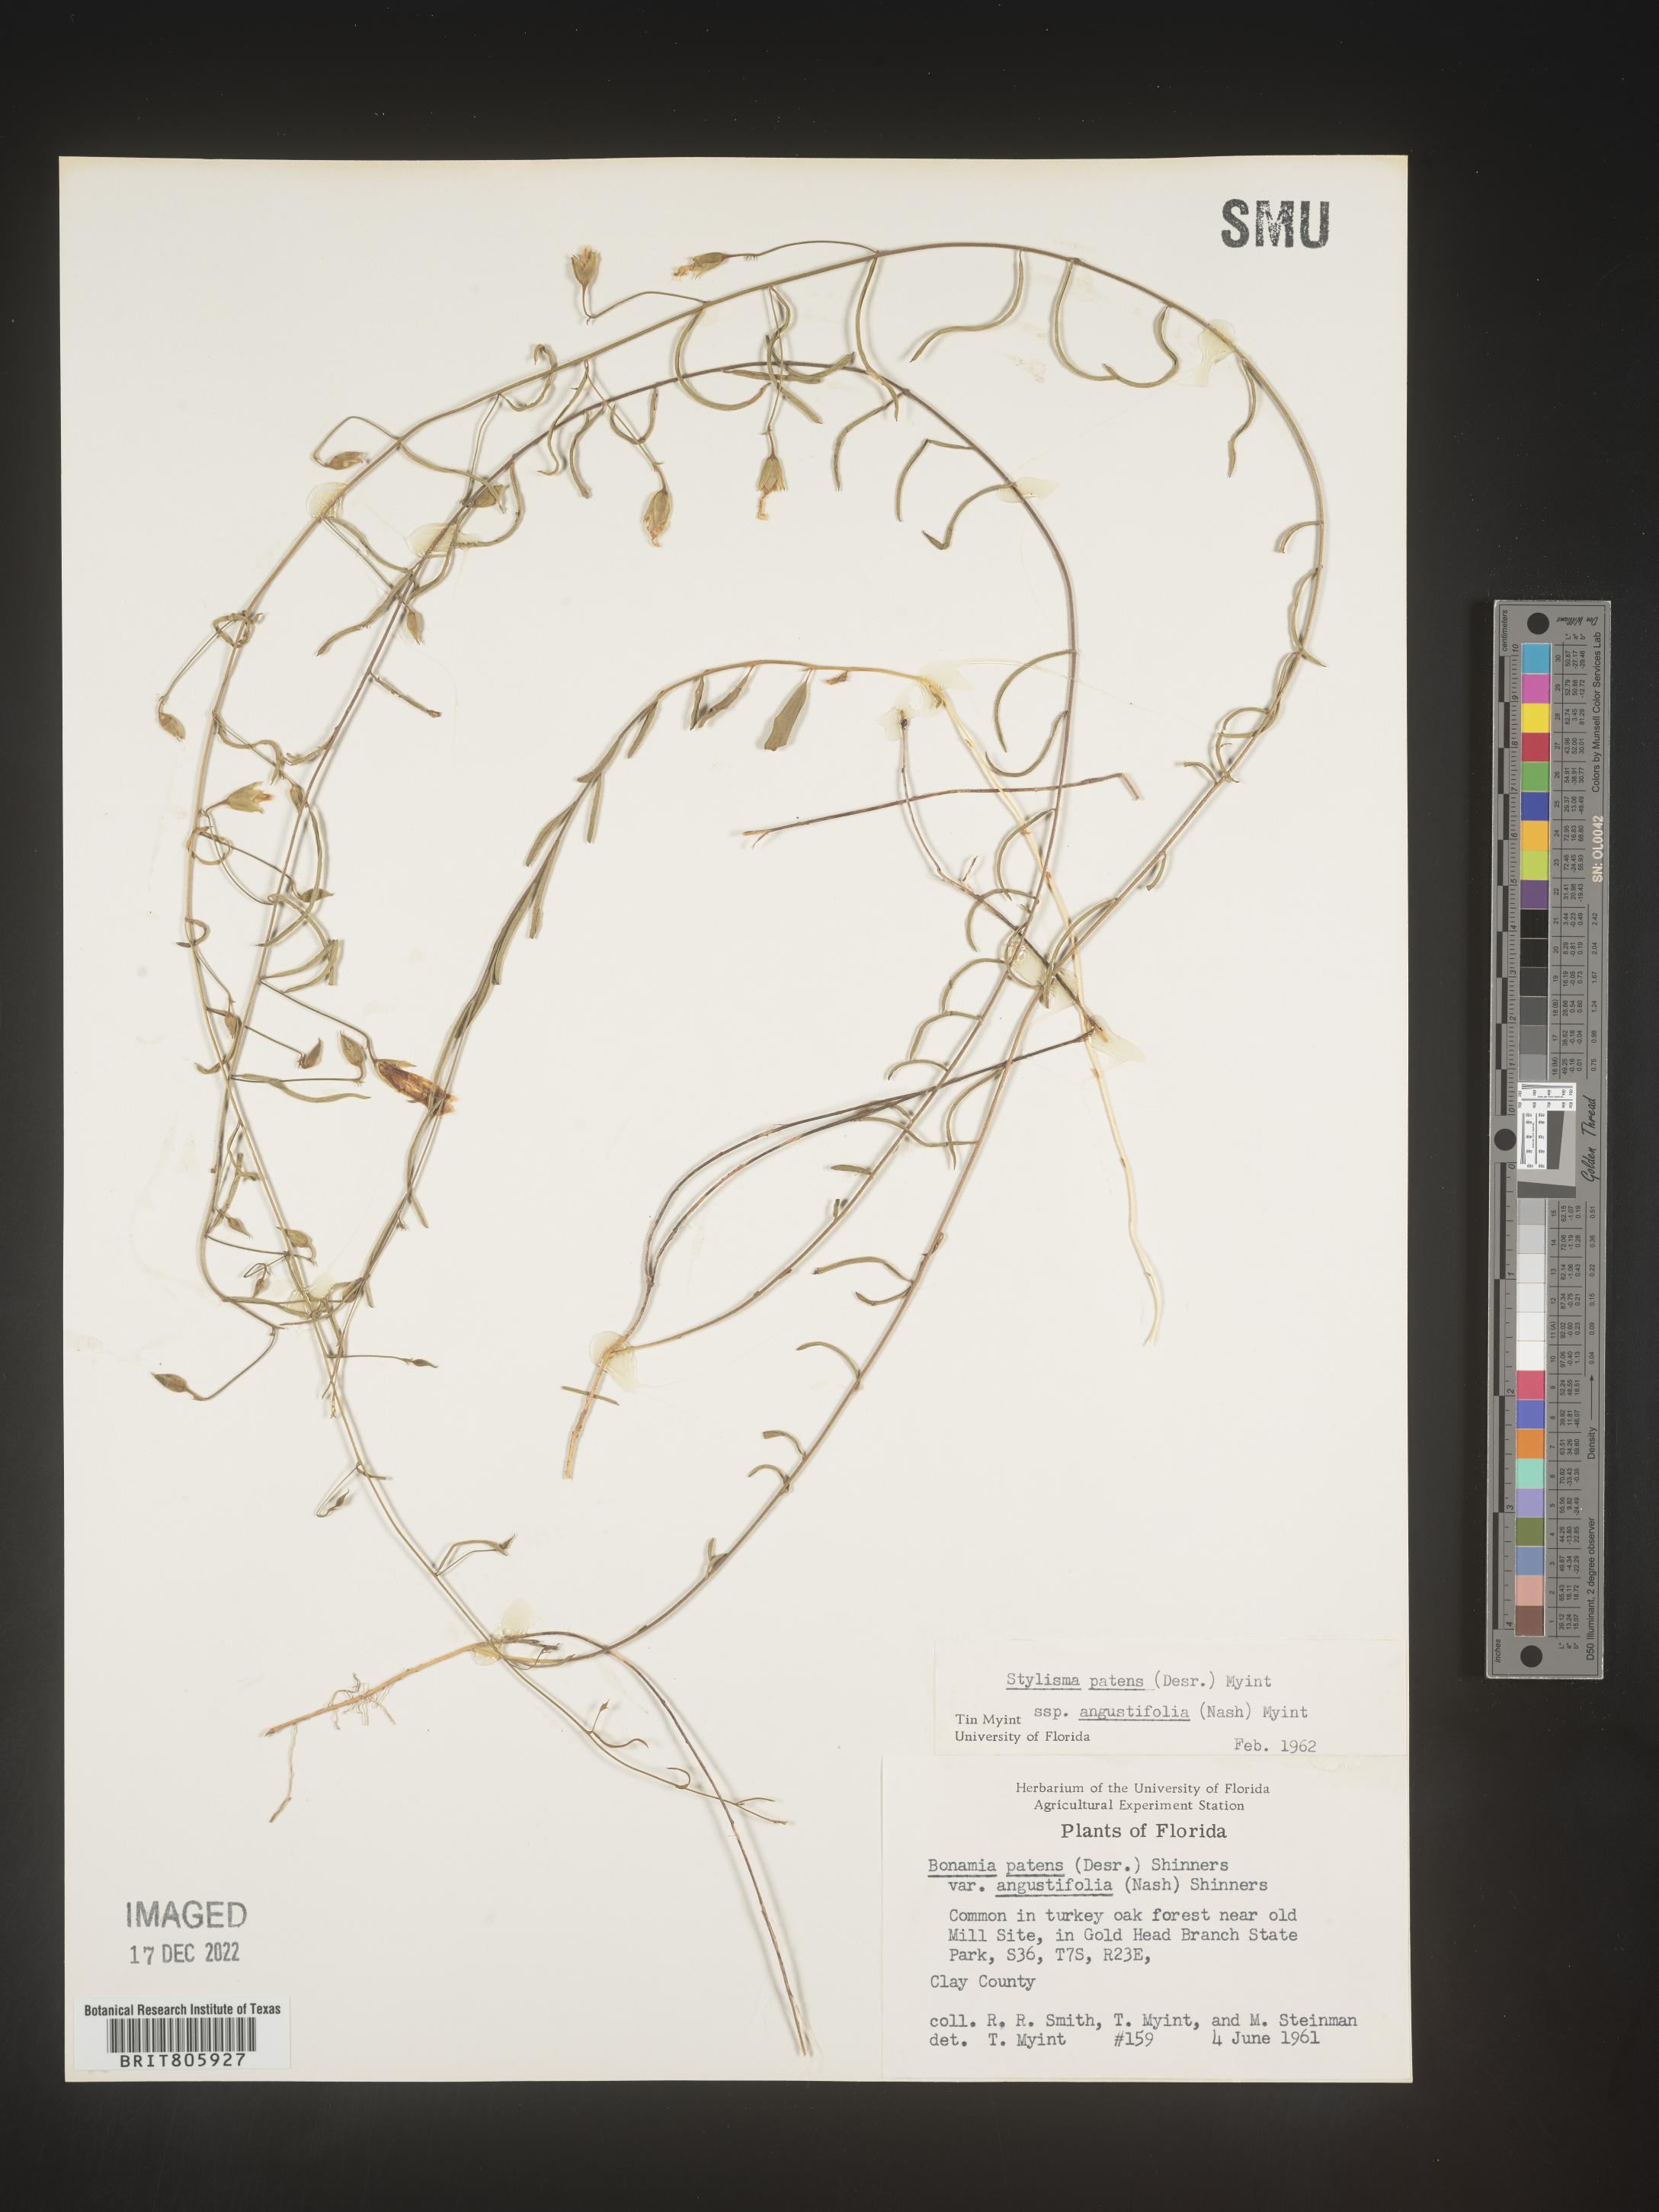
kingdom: Plantae
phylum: Tracheophyta
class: Magnoliopsida
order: Solanales
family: Convolvulaceae
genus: Stylisma
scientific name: Stylisma
